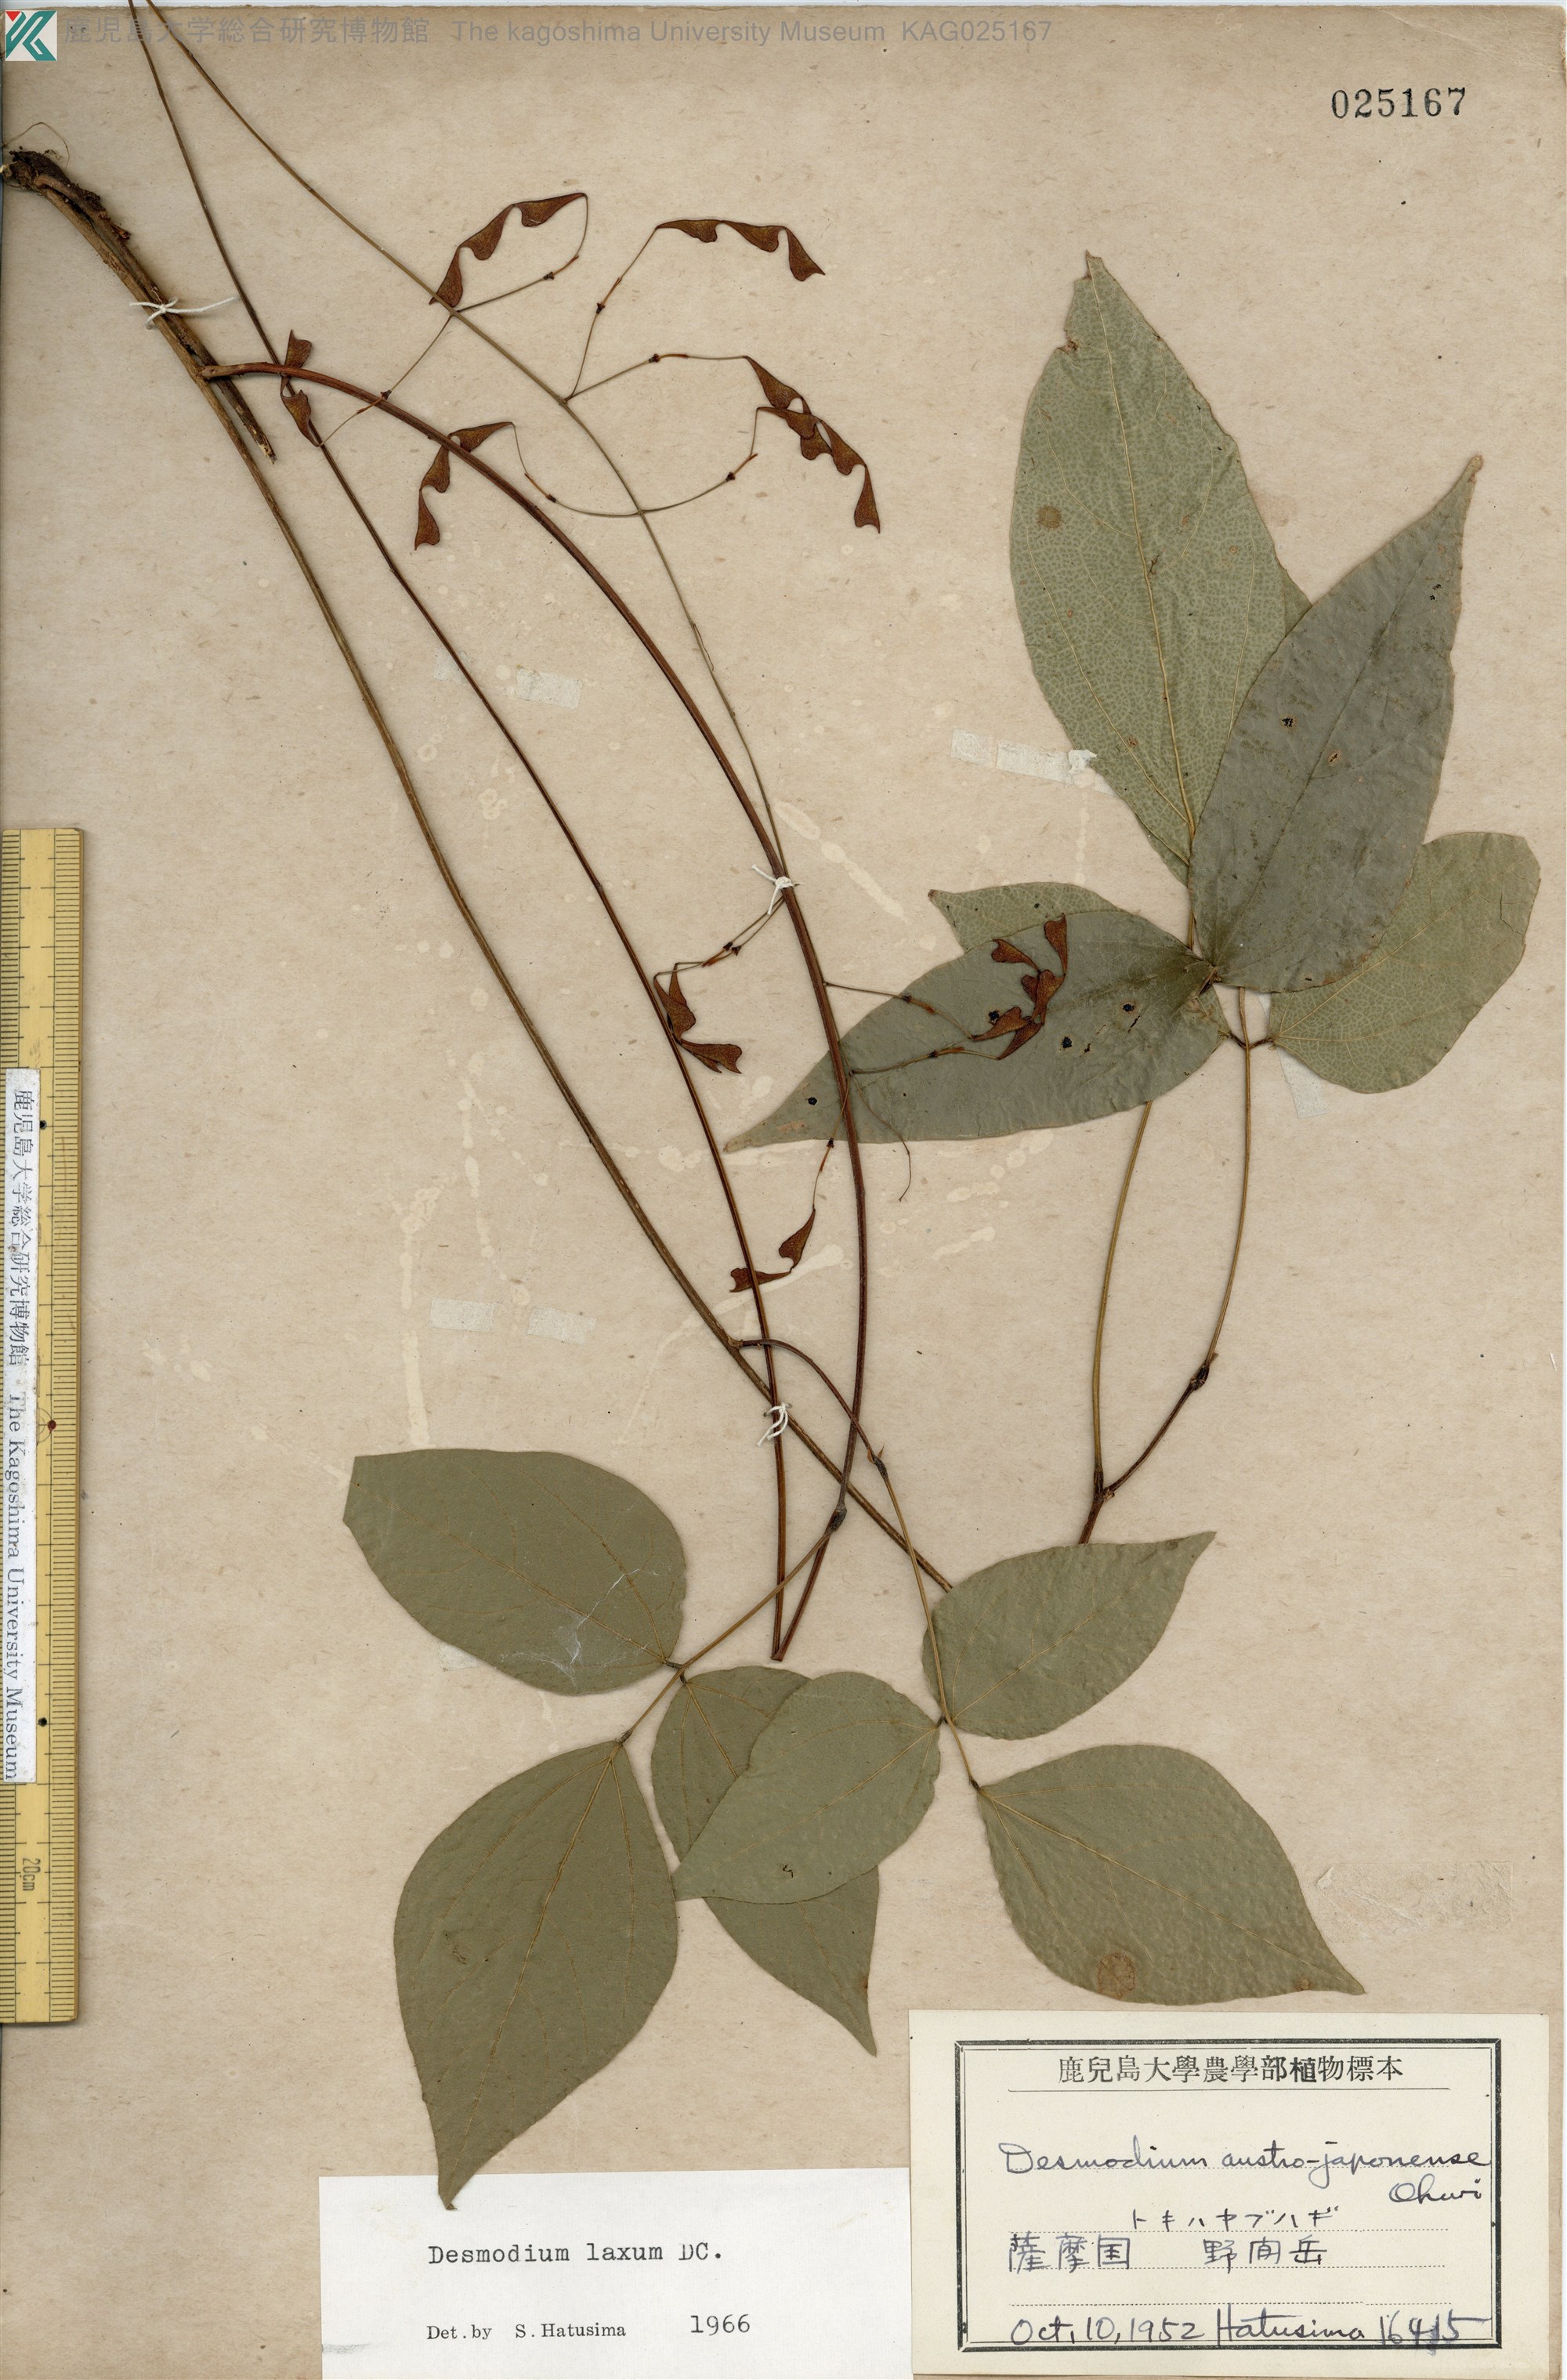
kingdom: Plantae
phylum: Tracheophyta
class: Magnoliopsida
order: Fabales
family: Fabaceae
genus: Desmodium
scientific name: Desmodium laxum
